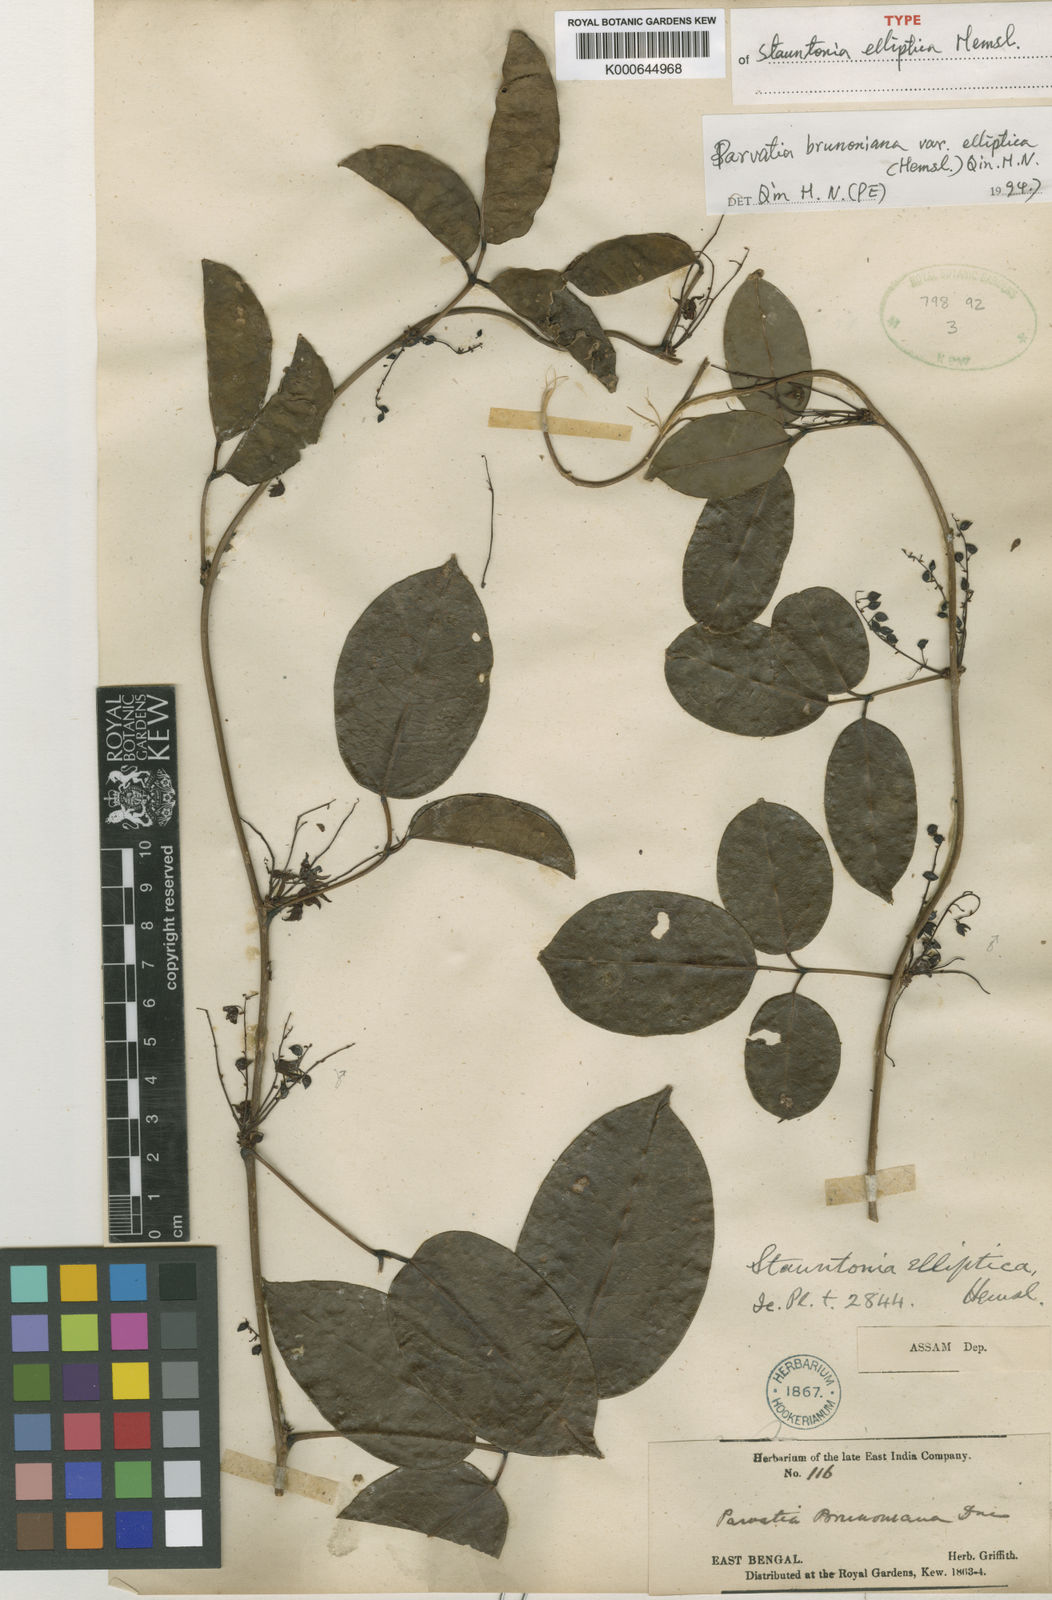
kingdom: Plantae
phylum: Tracheophyta
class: Magnoliopsida
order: Ranunculales
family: Lardizabalaceae
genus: Stauntonia
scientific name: Stauntonia elliptica
